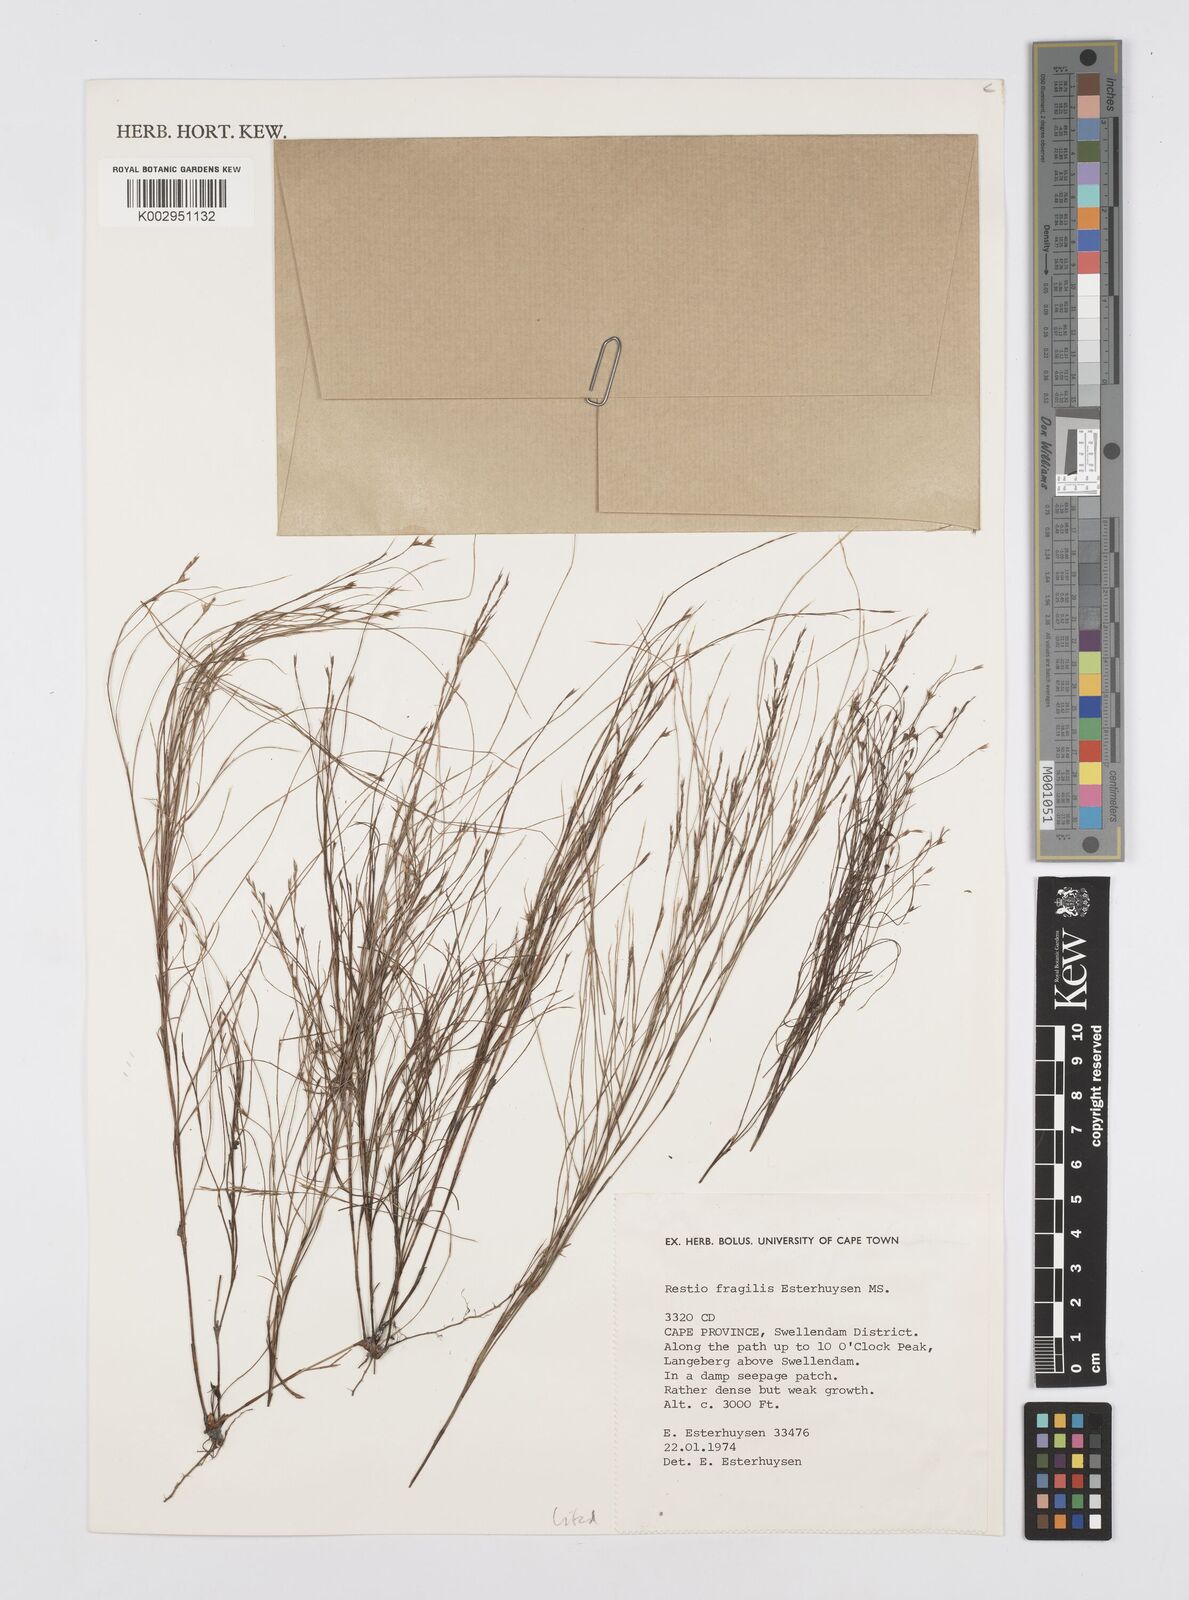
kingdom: Plantae
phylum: Tracheophyta
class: Liliopsida
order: Poales
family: Restionaceae
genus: Restio
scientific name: Restio fragilis
